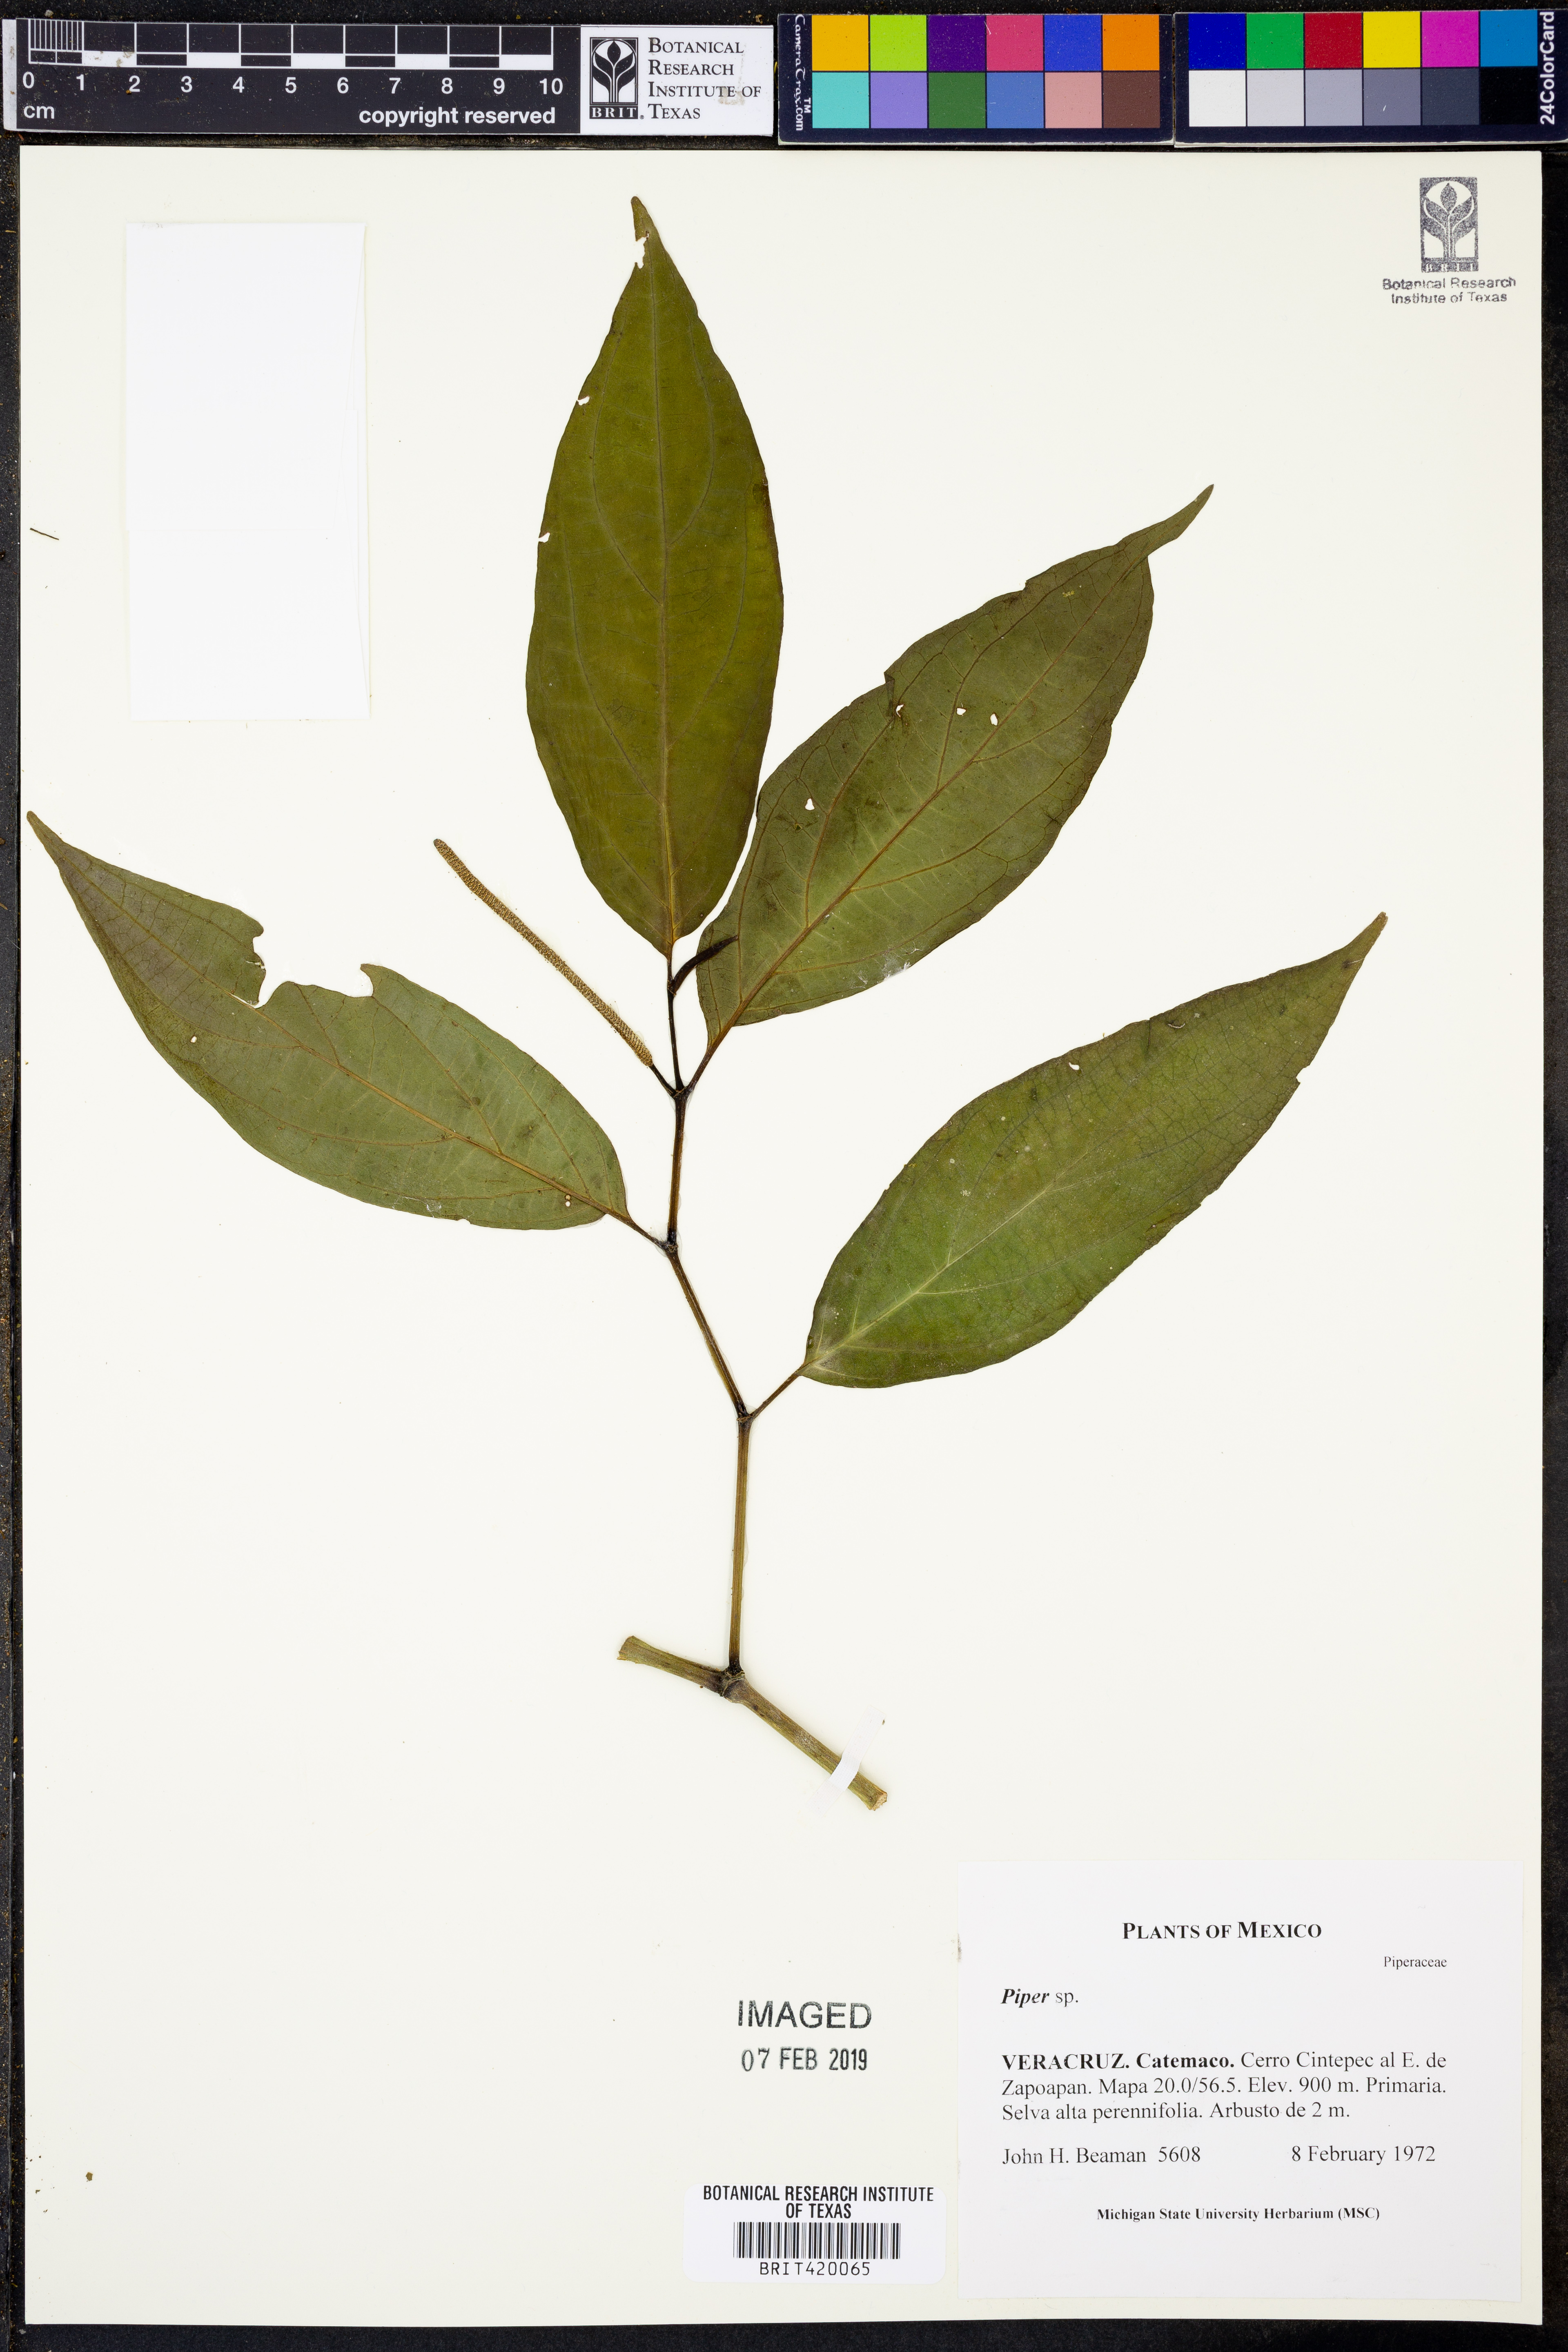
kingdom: Plantae
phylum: Tracheophyta
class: Magnoliopsida
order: Piperales
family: Piperaceae
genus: Piper
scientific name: Piper
